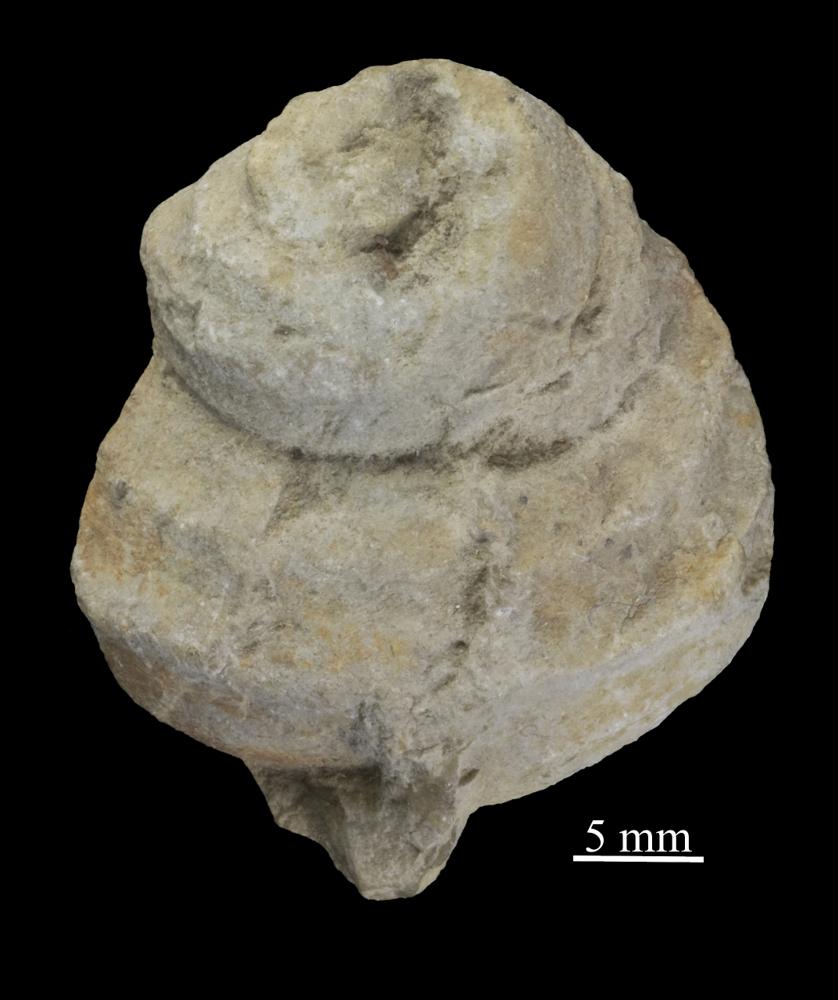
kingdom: Animalia
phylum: Mollusca
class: Gastropoda
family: Lophospiridae
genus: Ruedemannia
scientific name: Ruedemannia lirata
